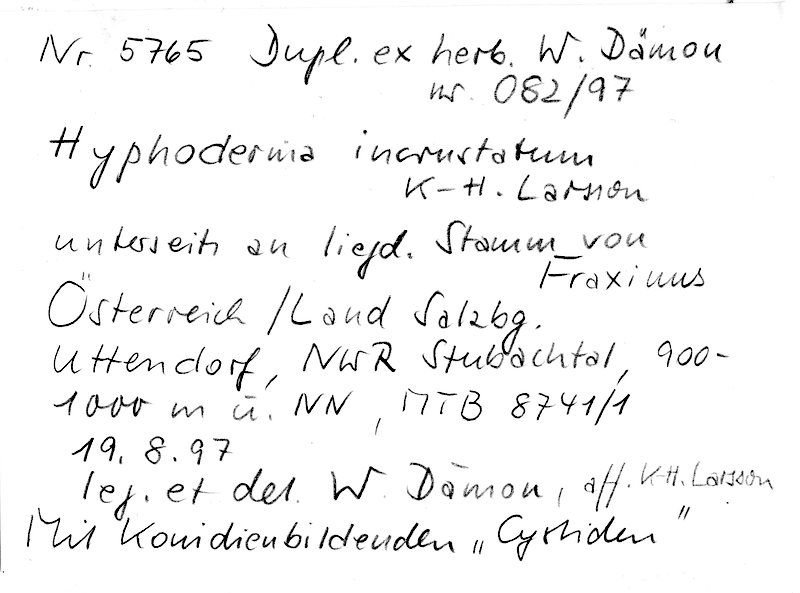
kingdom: Plantae
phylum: Tracheophyta
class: Magnoliopsida
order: Lamiales
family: Oleaceae
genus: Fraxinus
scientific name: Fraxinus
